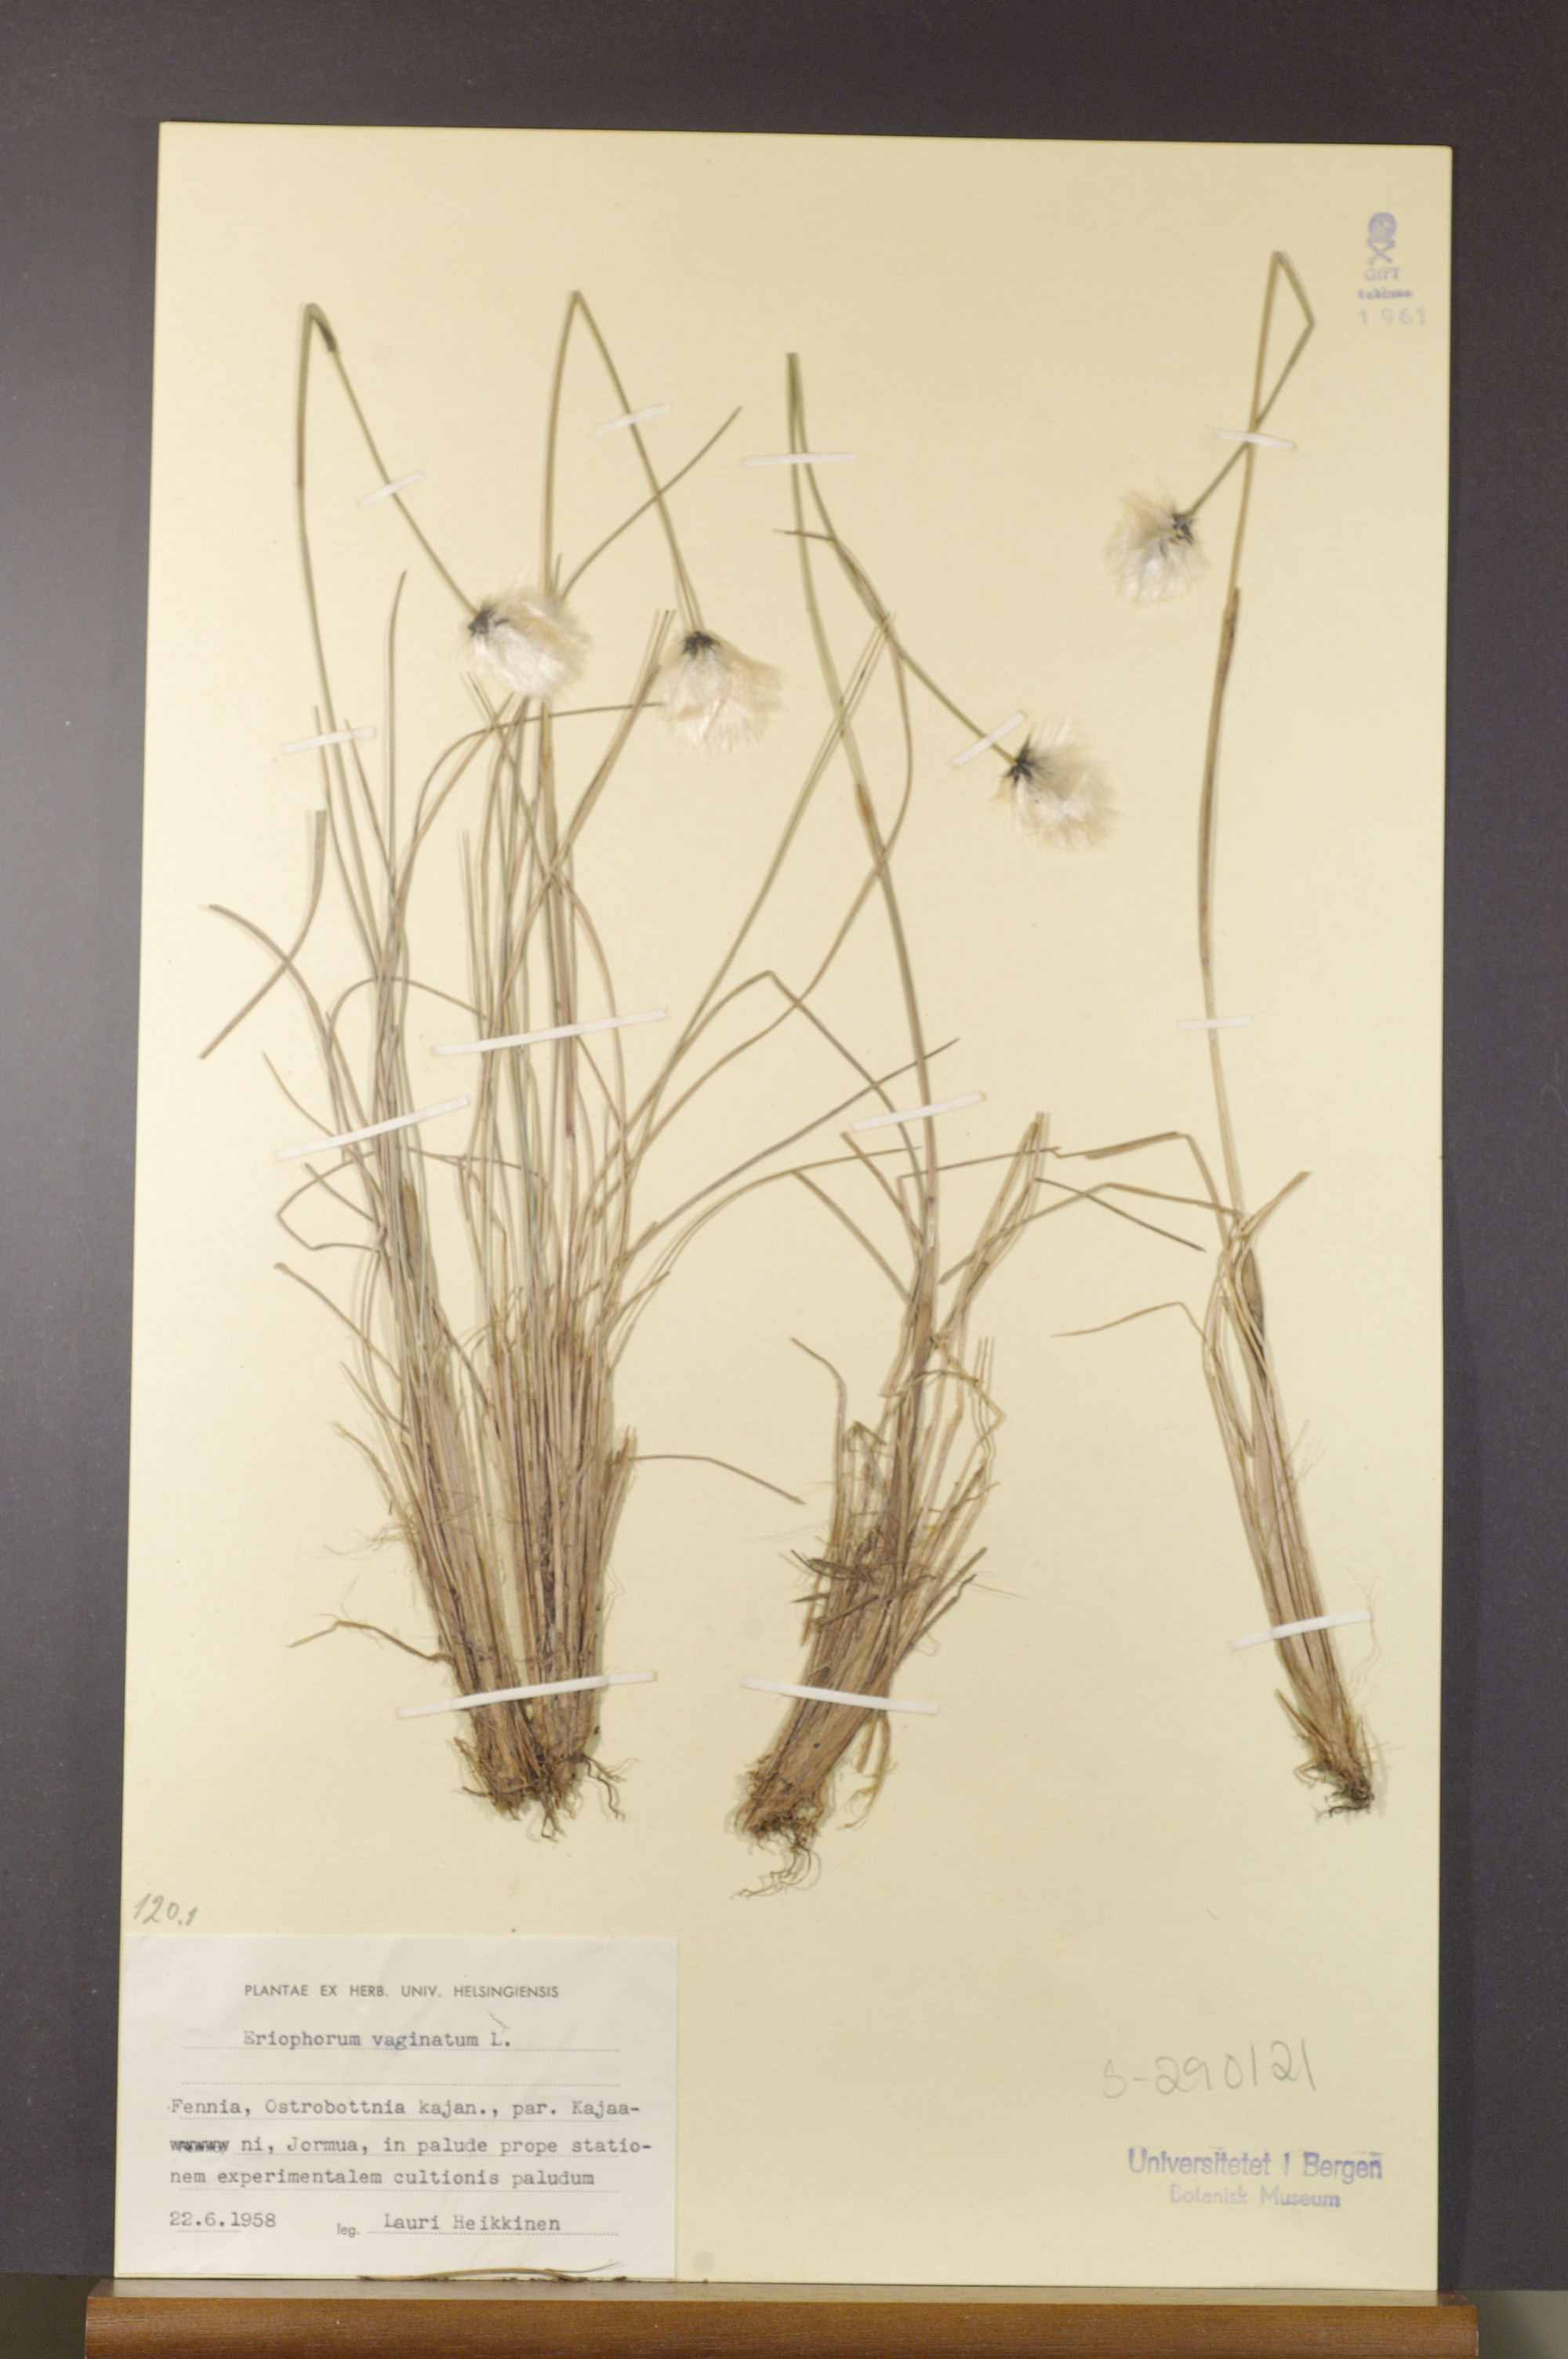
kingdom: Plantae
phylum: Tracheophyta
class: Liliopsida
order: Poales
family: Cyperaceae
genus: Eriophorum
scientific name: Eriophorum vaginatum
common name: Hare's-tail cottongrass
